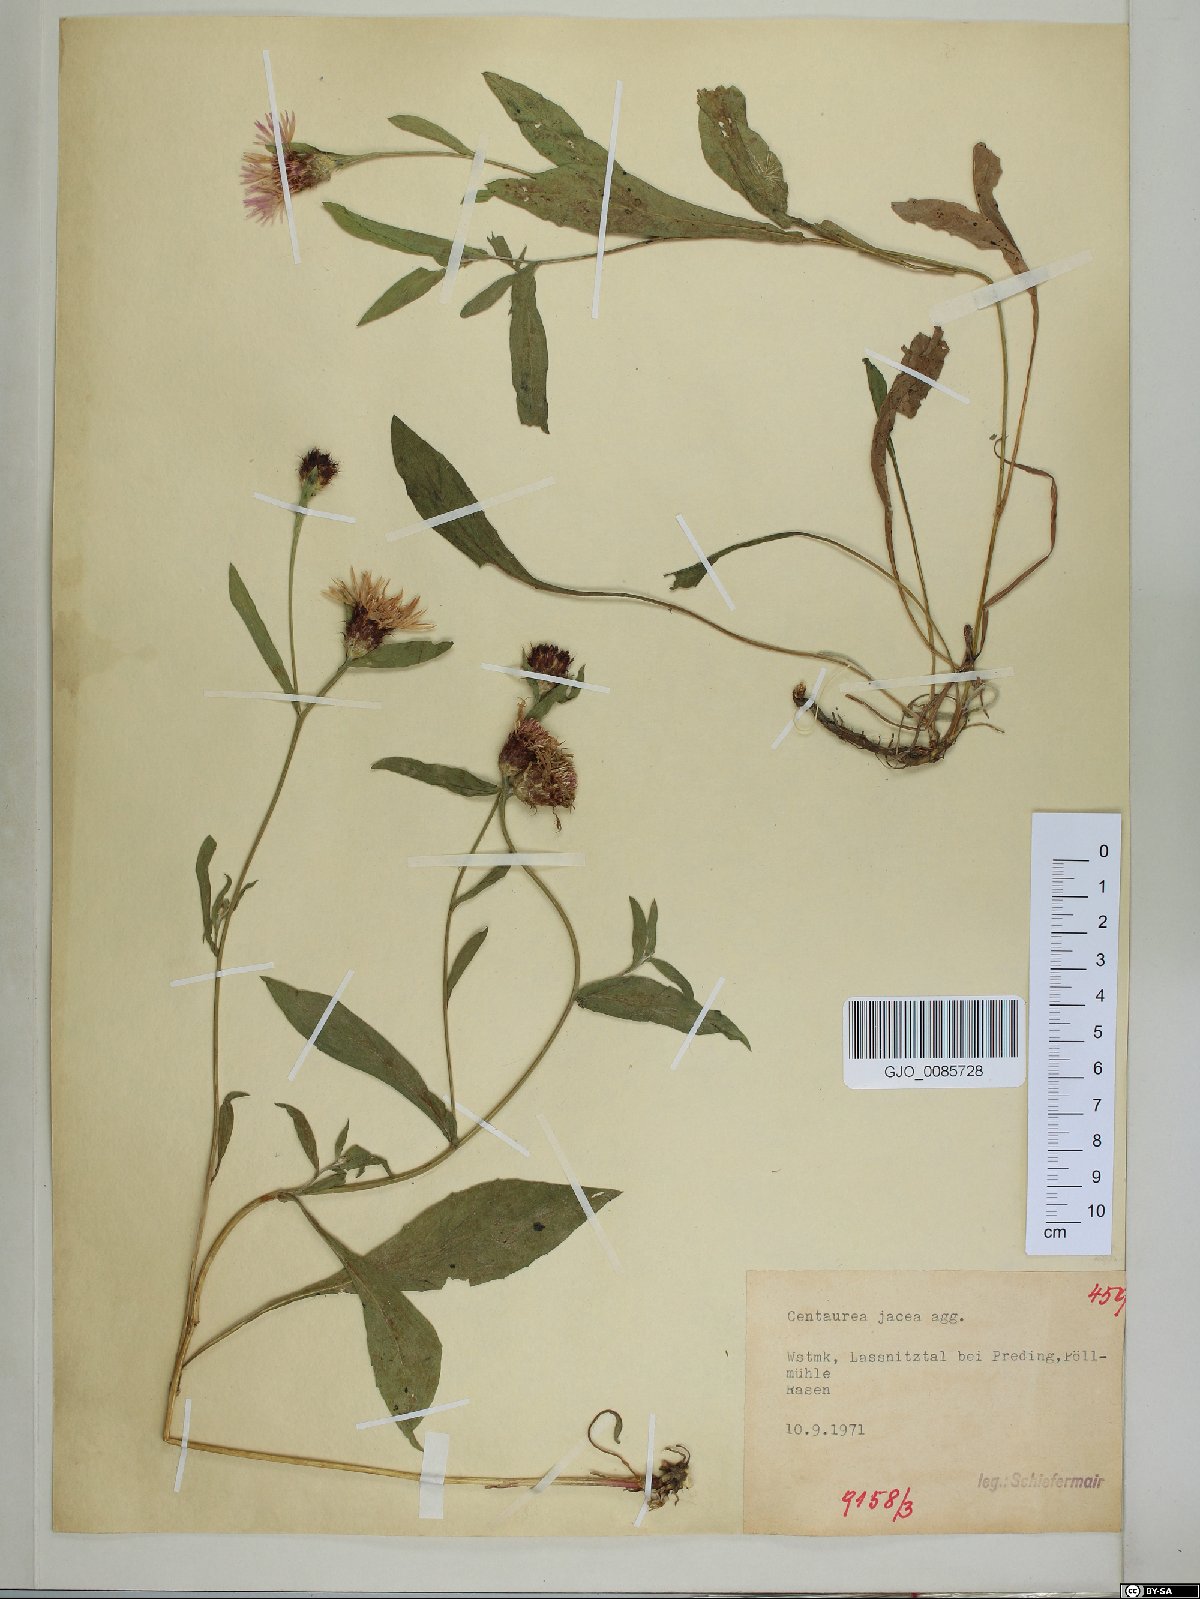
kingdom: Plantae
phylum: Tracheophyta
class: Magnoliopsida
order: Asterales
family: Asteraceae
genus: Centaurea
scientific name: Centaurea jacea
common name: Brown knapweed
